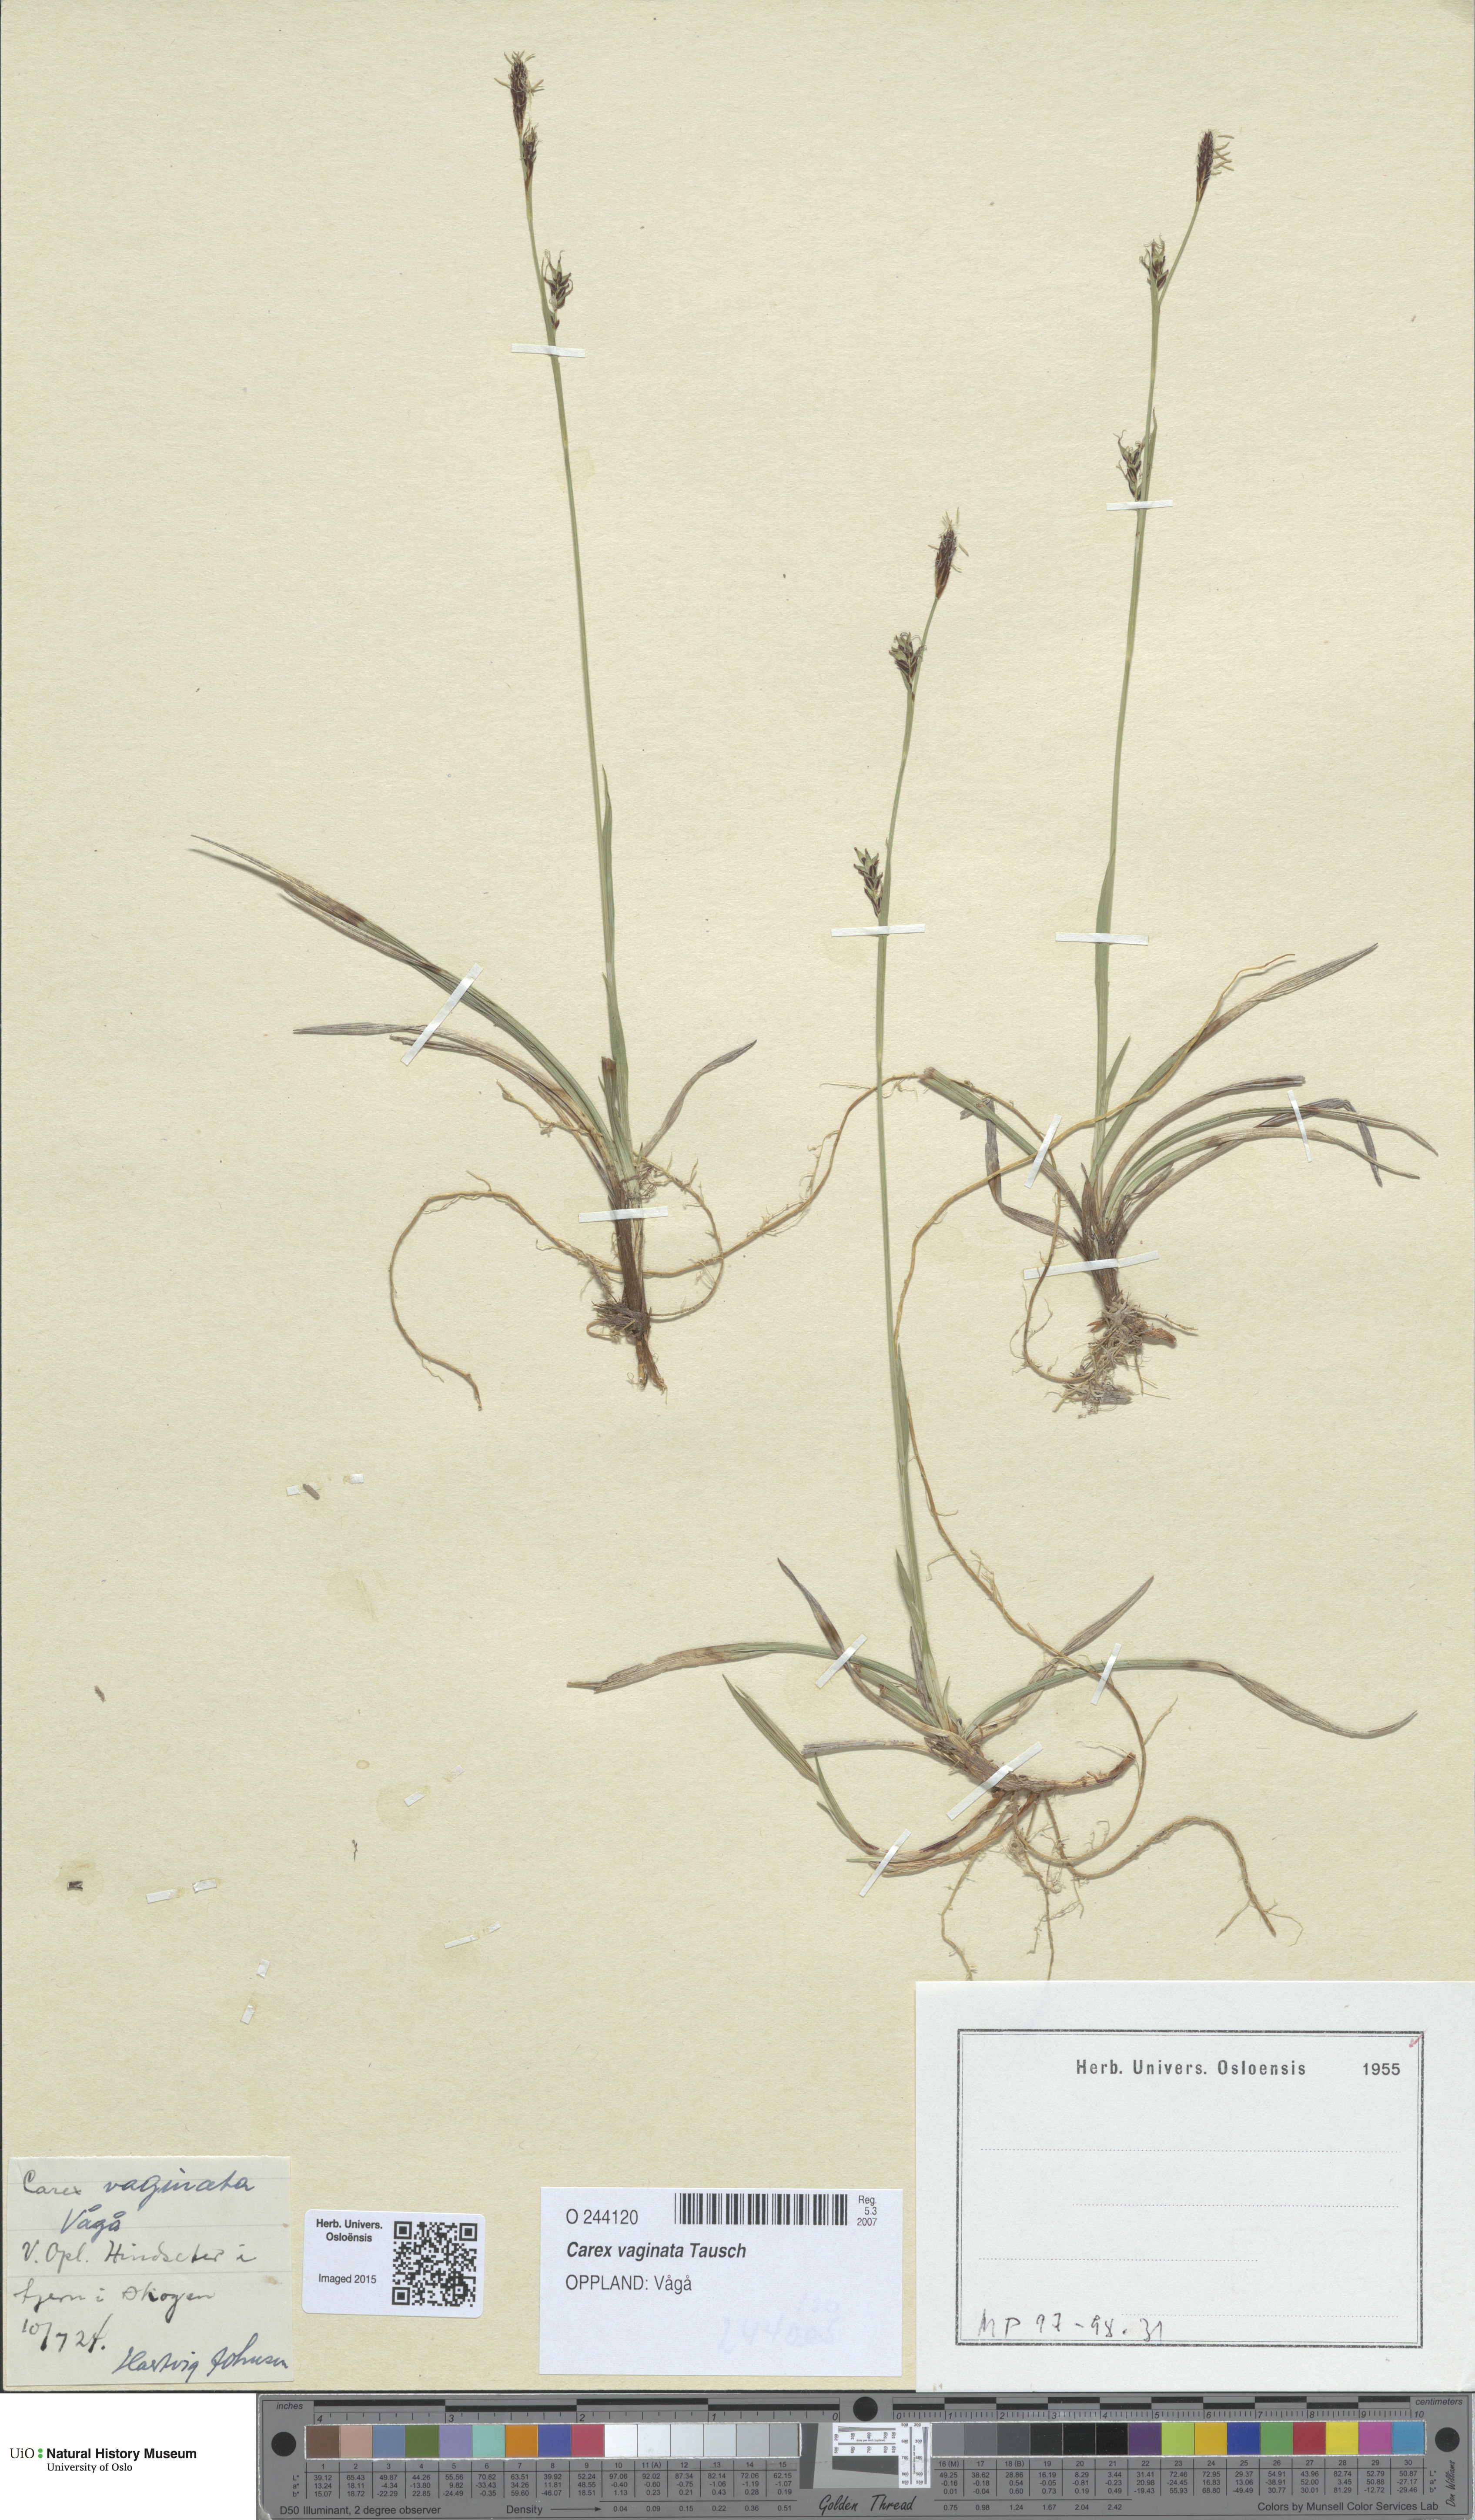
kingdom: Plantae
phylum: Tracheophyta
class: Liliopsida
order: Poales
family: Cyperaceae
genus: Carex
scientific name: Carex vaginata
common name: Sheathed sedge
